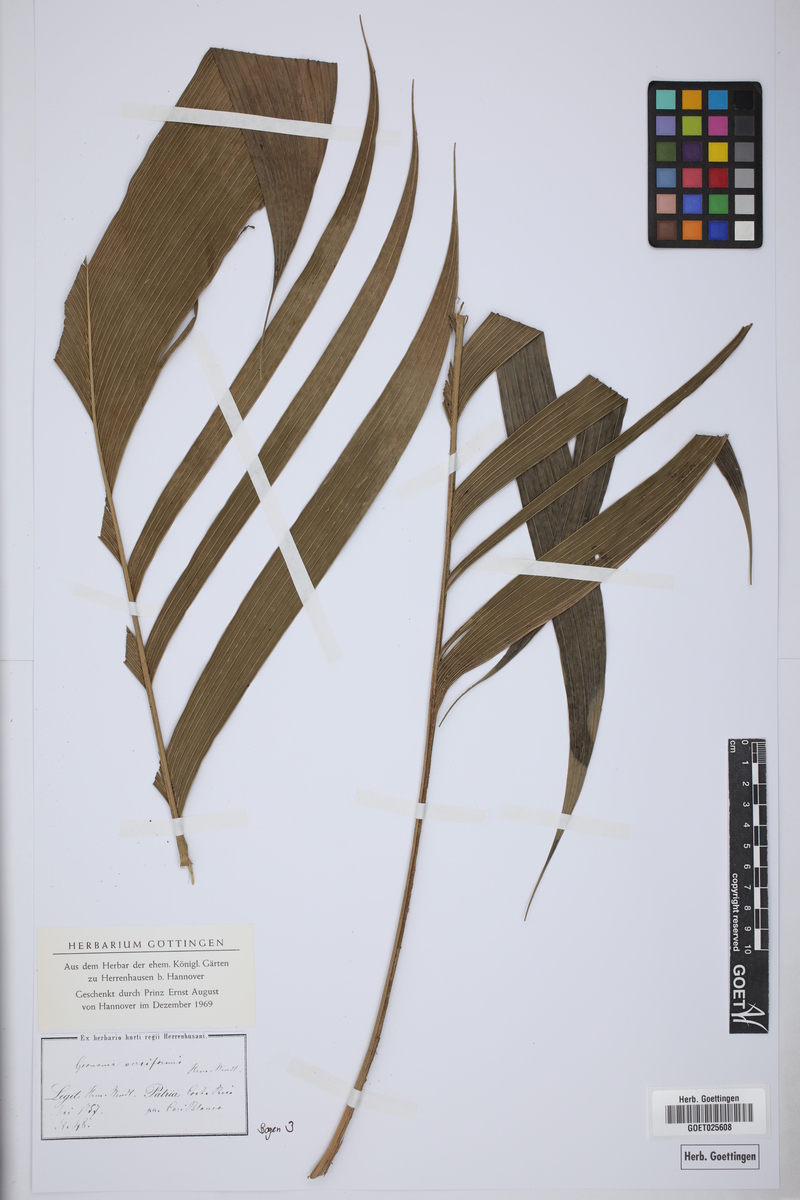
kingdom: Plantae
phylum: Tracheophyta
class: Liliopsida
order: Arecales
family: Arecaceae
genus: Geonoma
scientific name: Geonoma ferruginea
